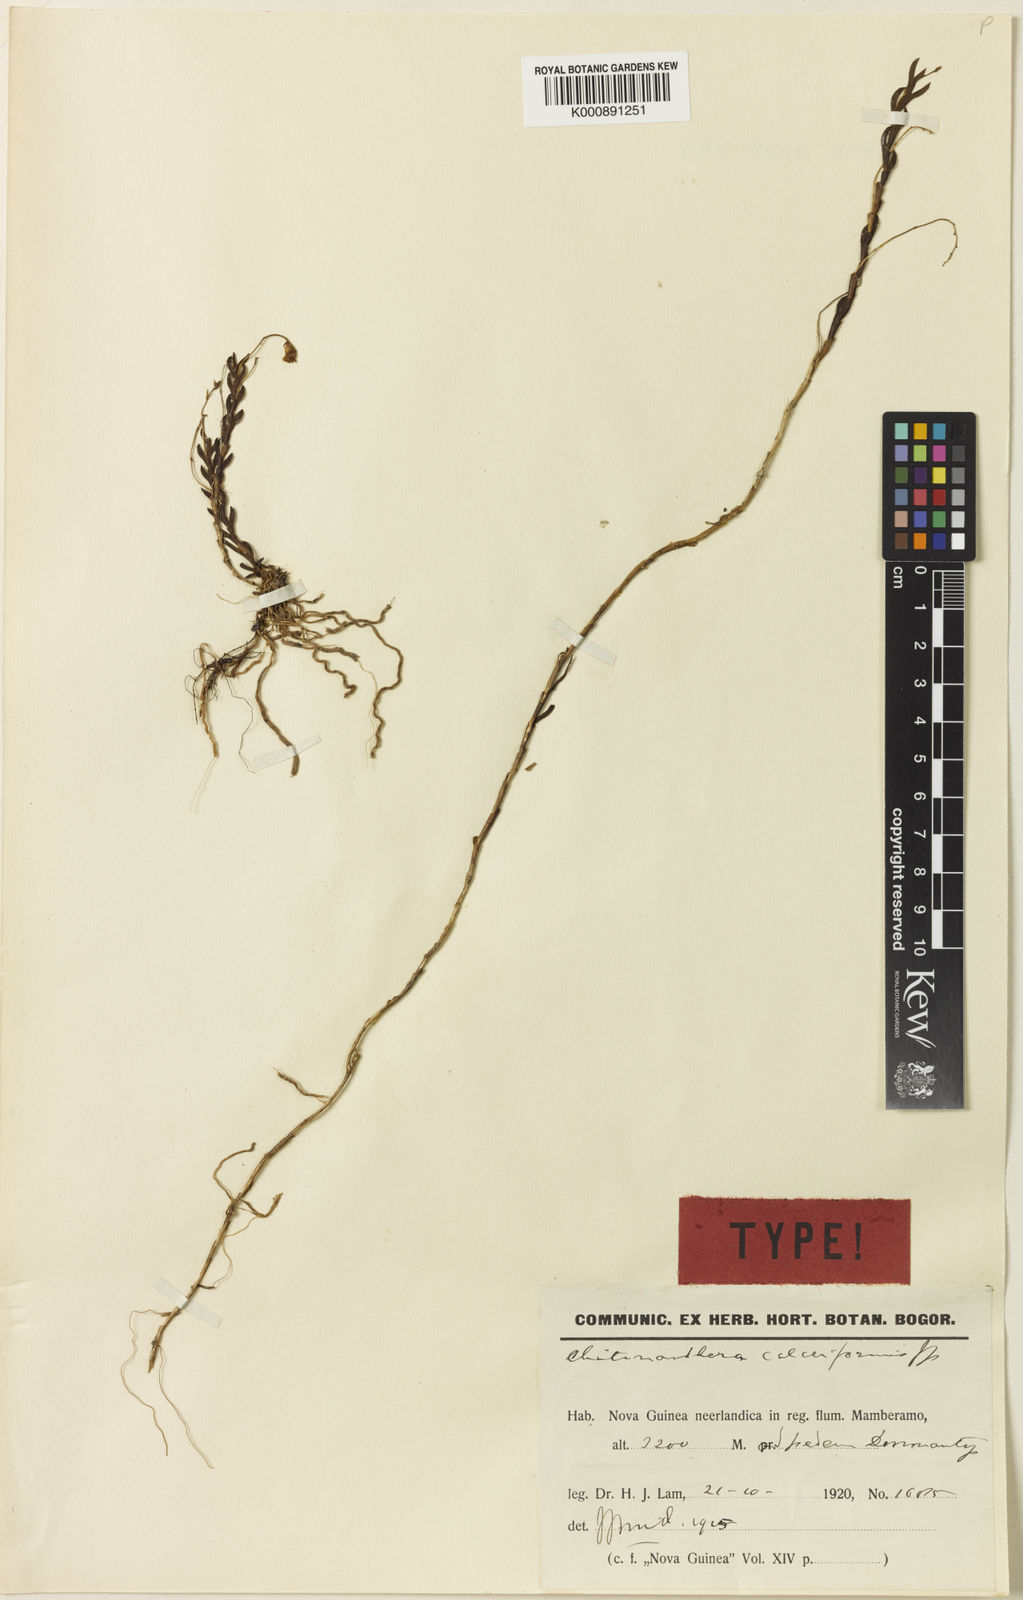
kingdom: Plantae
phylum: Tracheophyta
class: Liliopsida
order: Asparagales
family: Orchidaceae
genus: Octarrhena
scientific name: Octarrhena calceiformis
